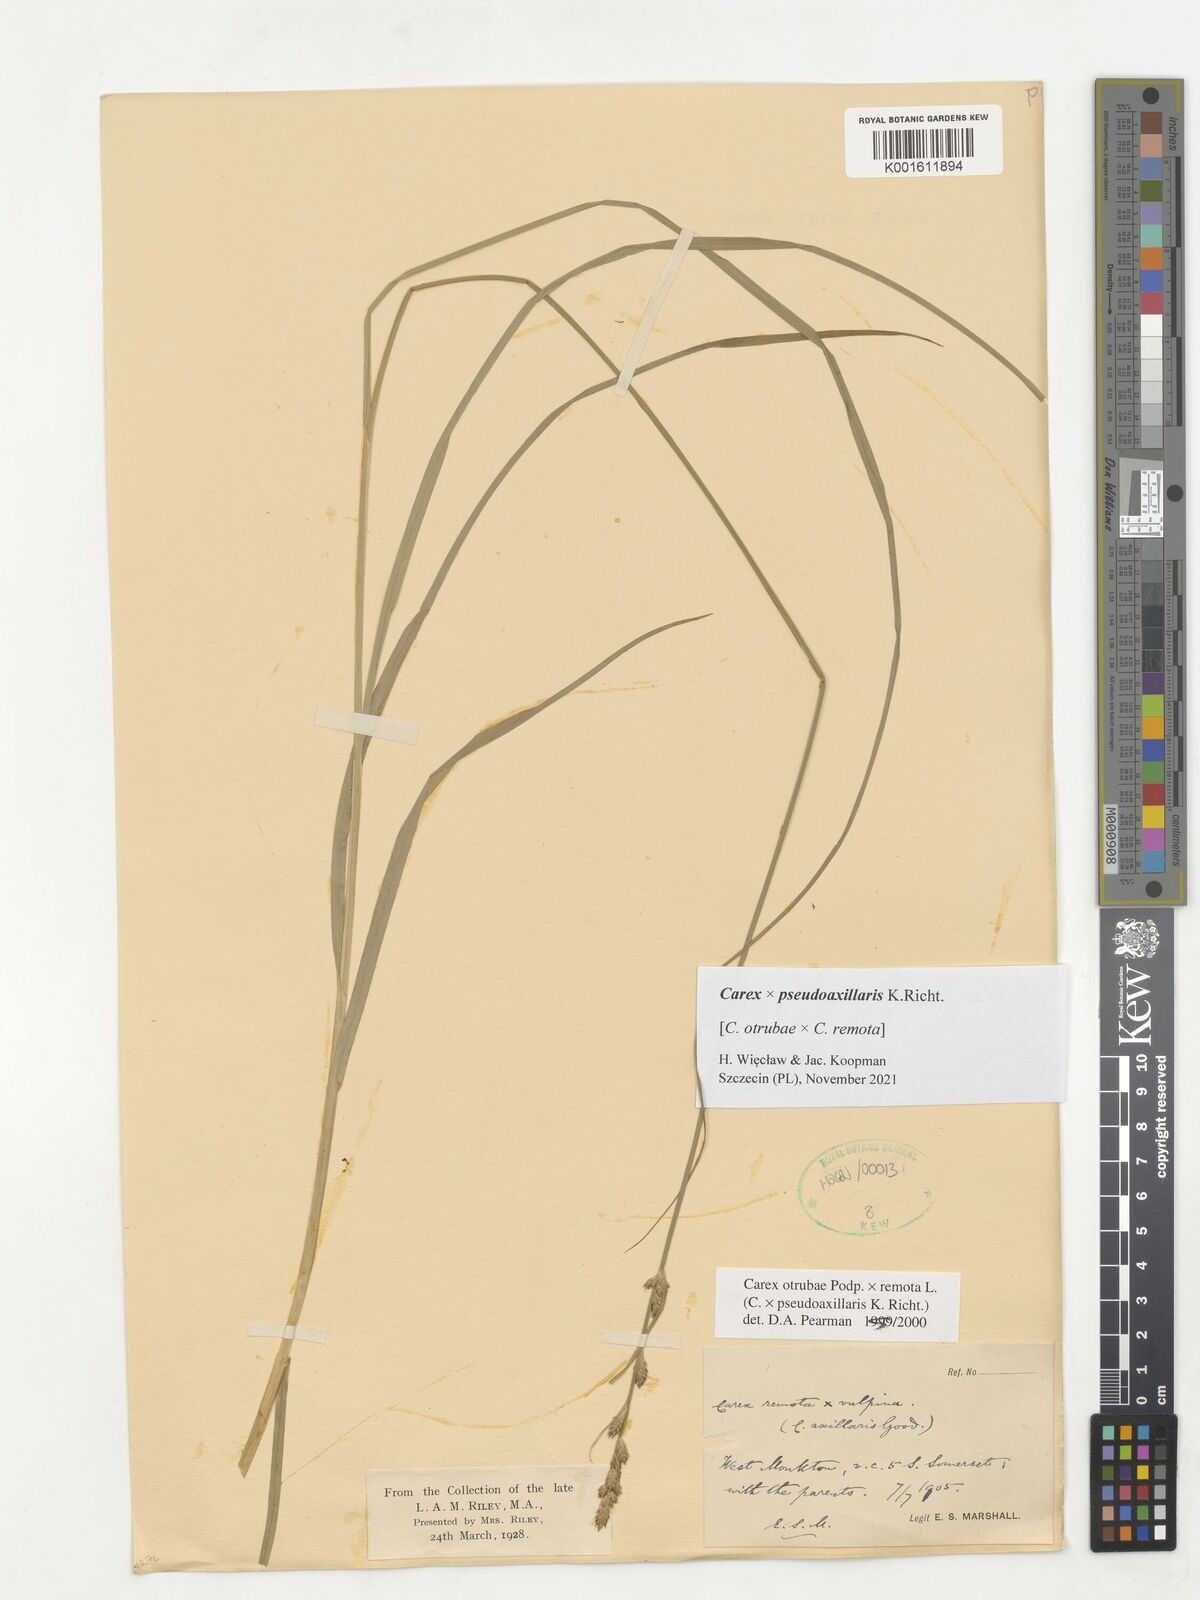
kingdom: Plantae
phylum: Tracheophyta
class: Liliopsida
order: Poales
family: Cyperaceae
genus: Carex
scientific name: Carex pseudoaxillaris
